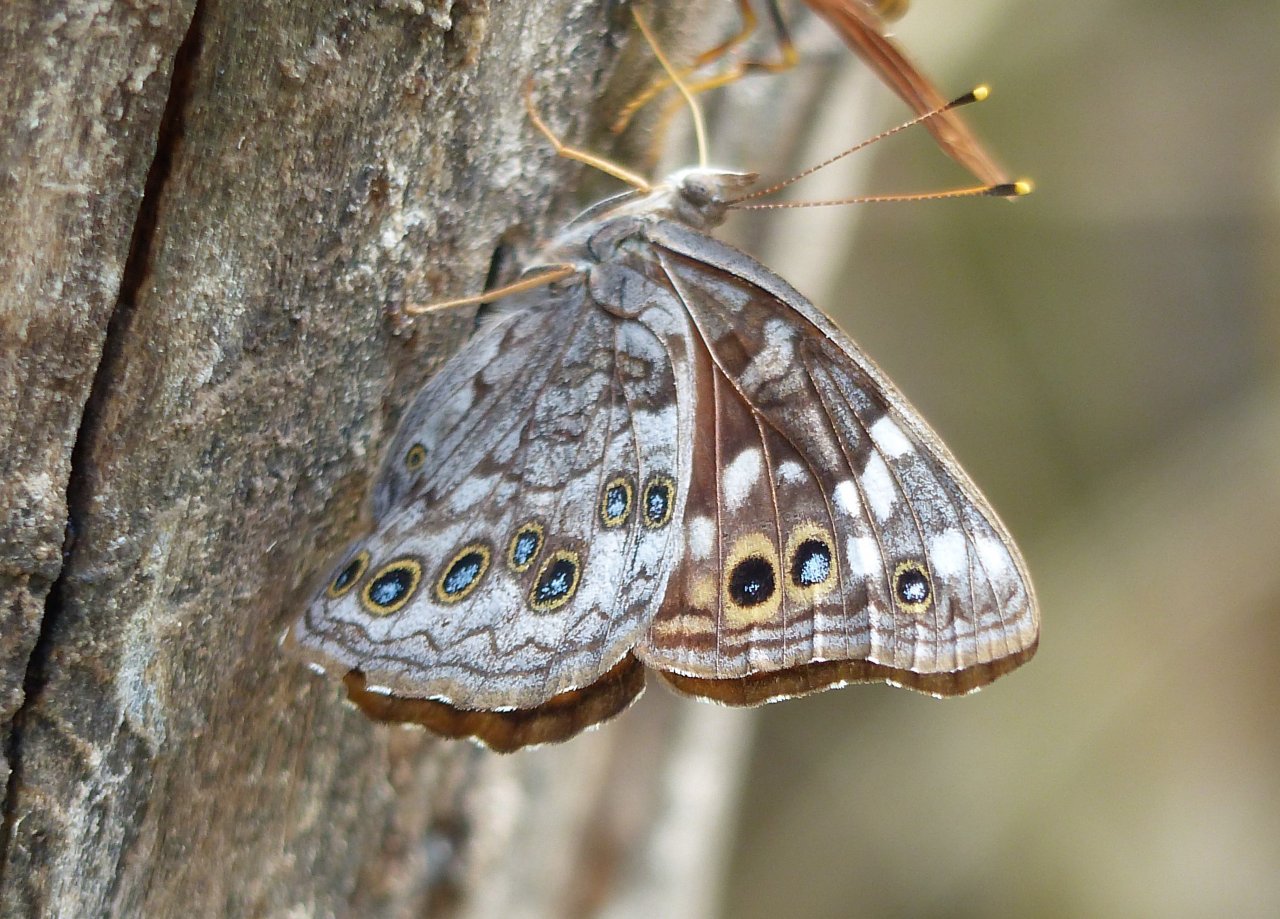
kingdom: Animalia
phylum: Arthropoda
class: Insecta
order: Lepidoptera
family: Nymphalidae
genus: Asterocampa
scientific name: Asterocampa leilia
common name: Empress Leilia
